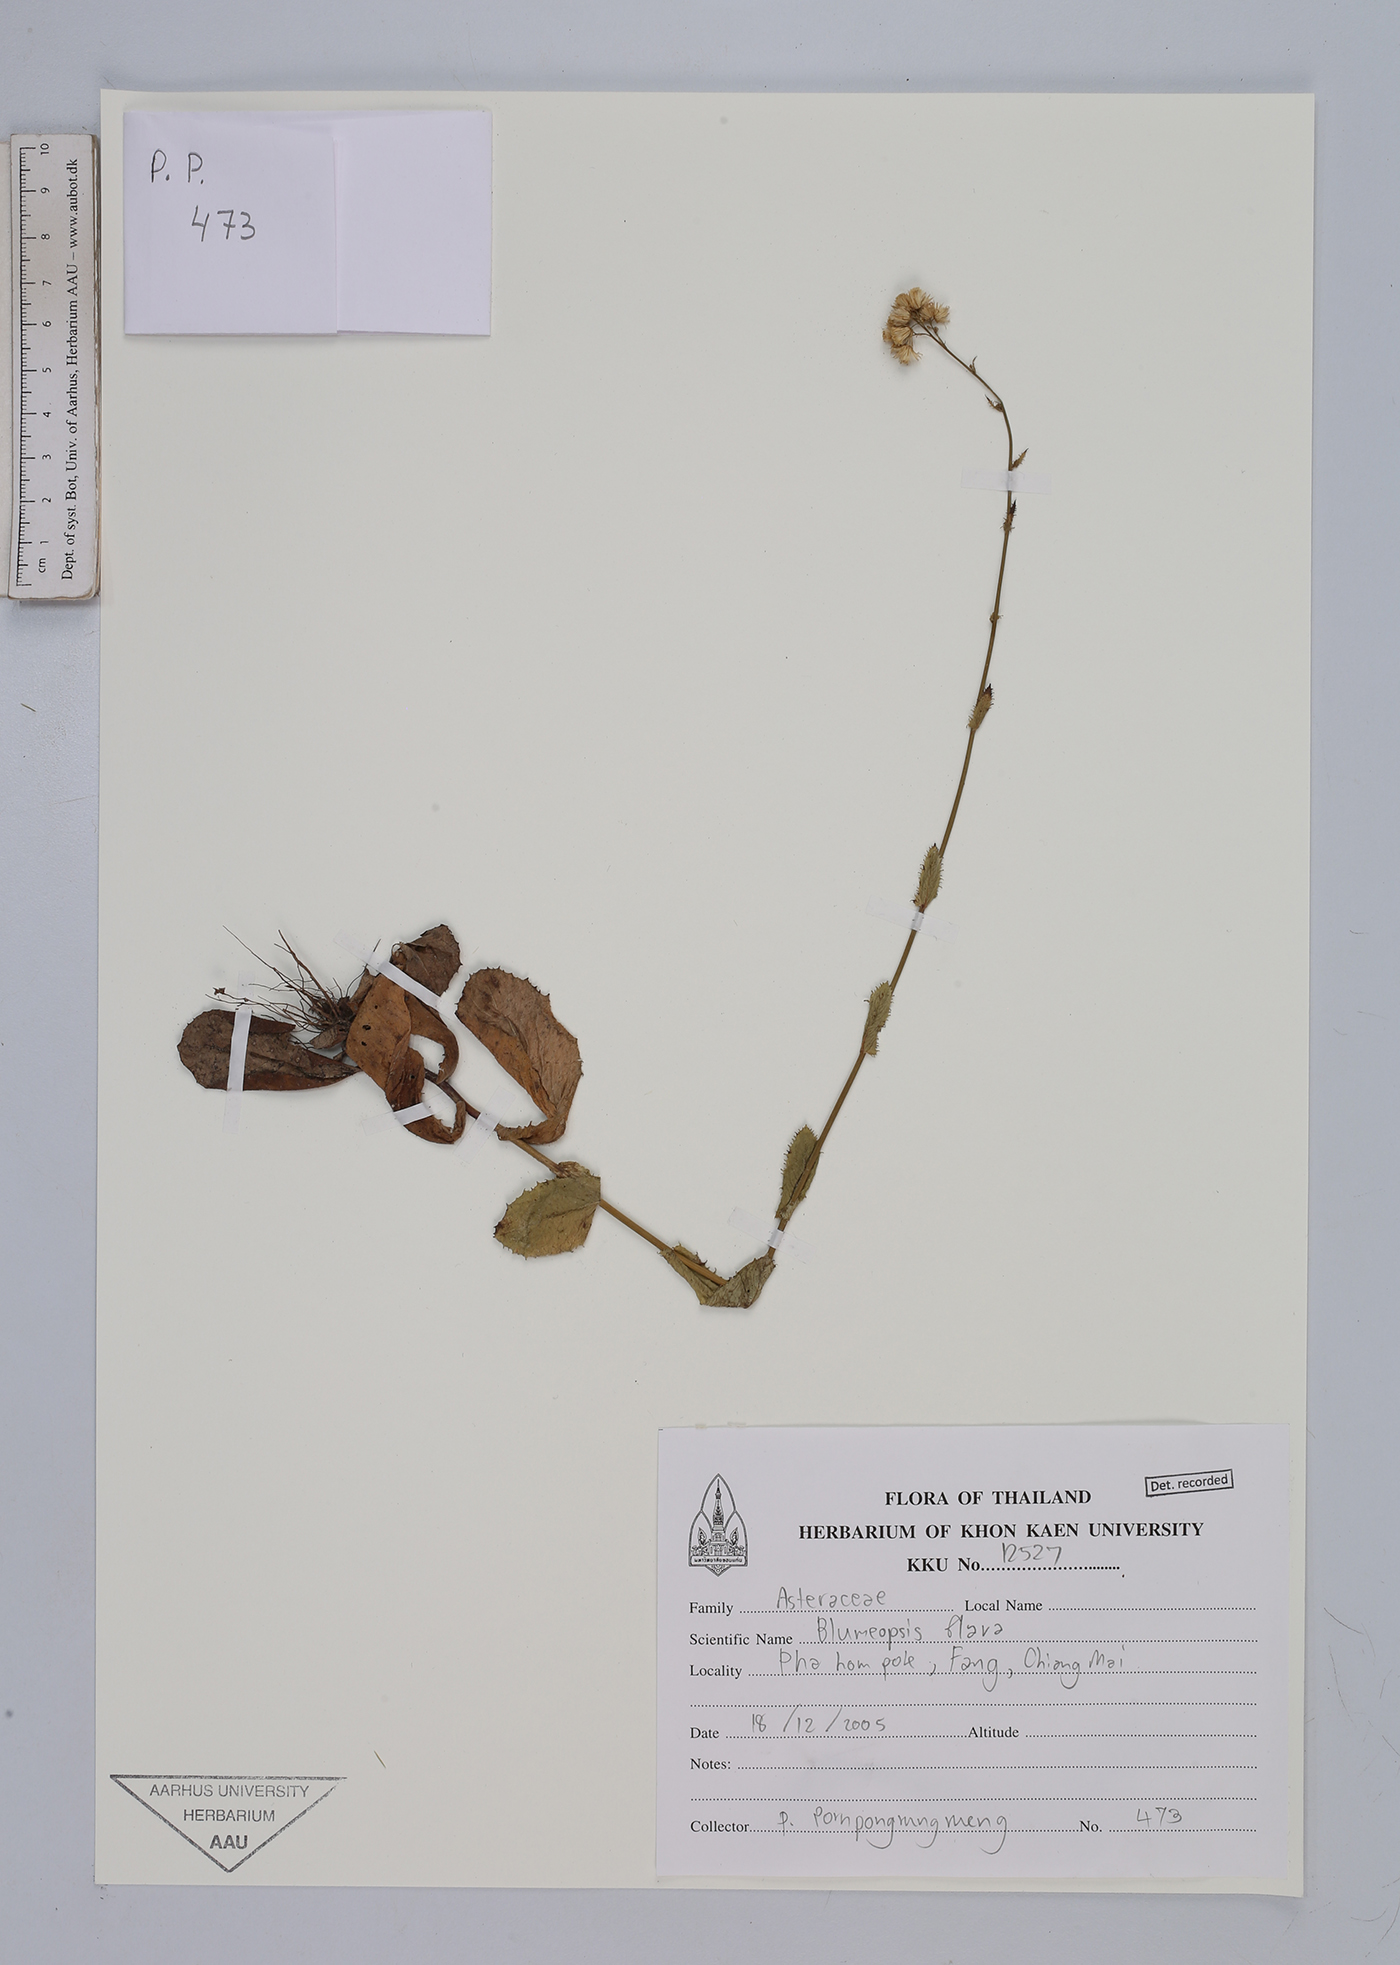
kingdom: Plantae
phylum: Tracheophyta
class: Magnoliopsida
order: Asterales
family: Asteraceae
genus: Blumeopsis
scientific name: Blumeopsis flava
